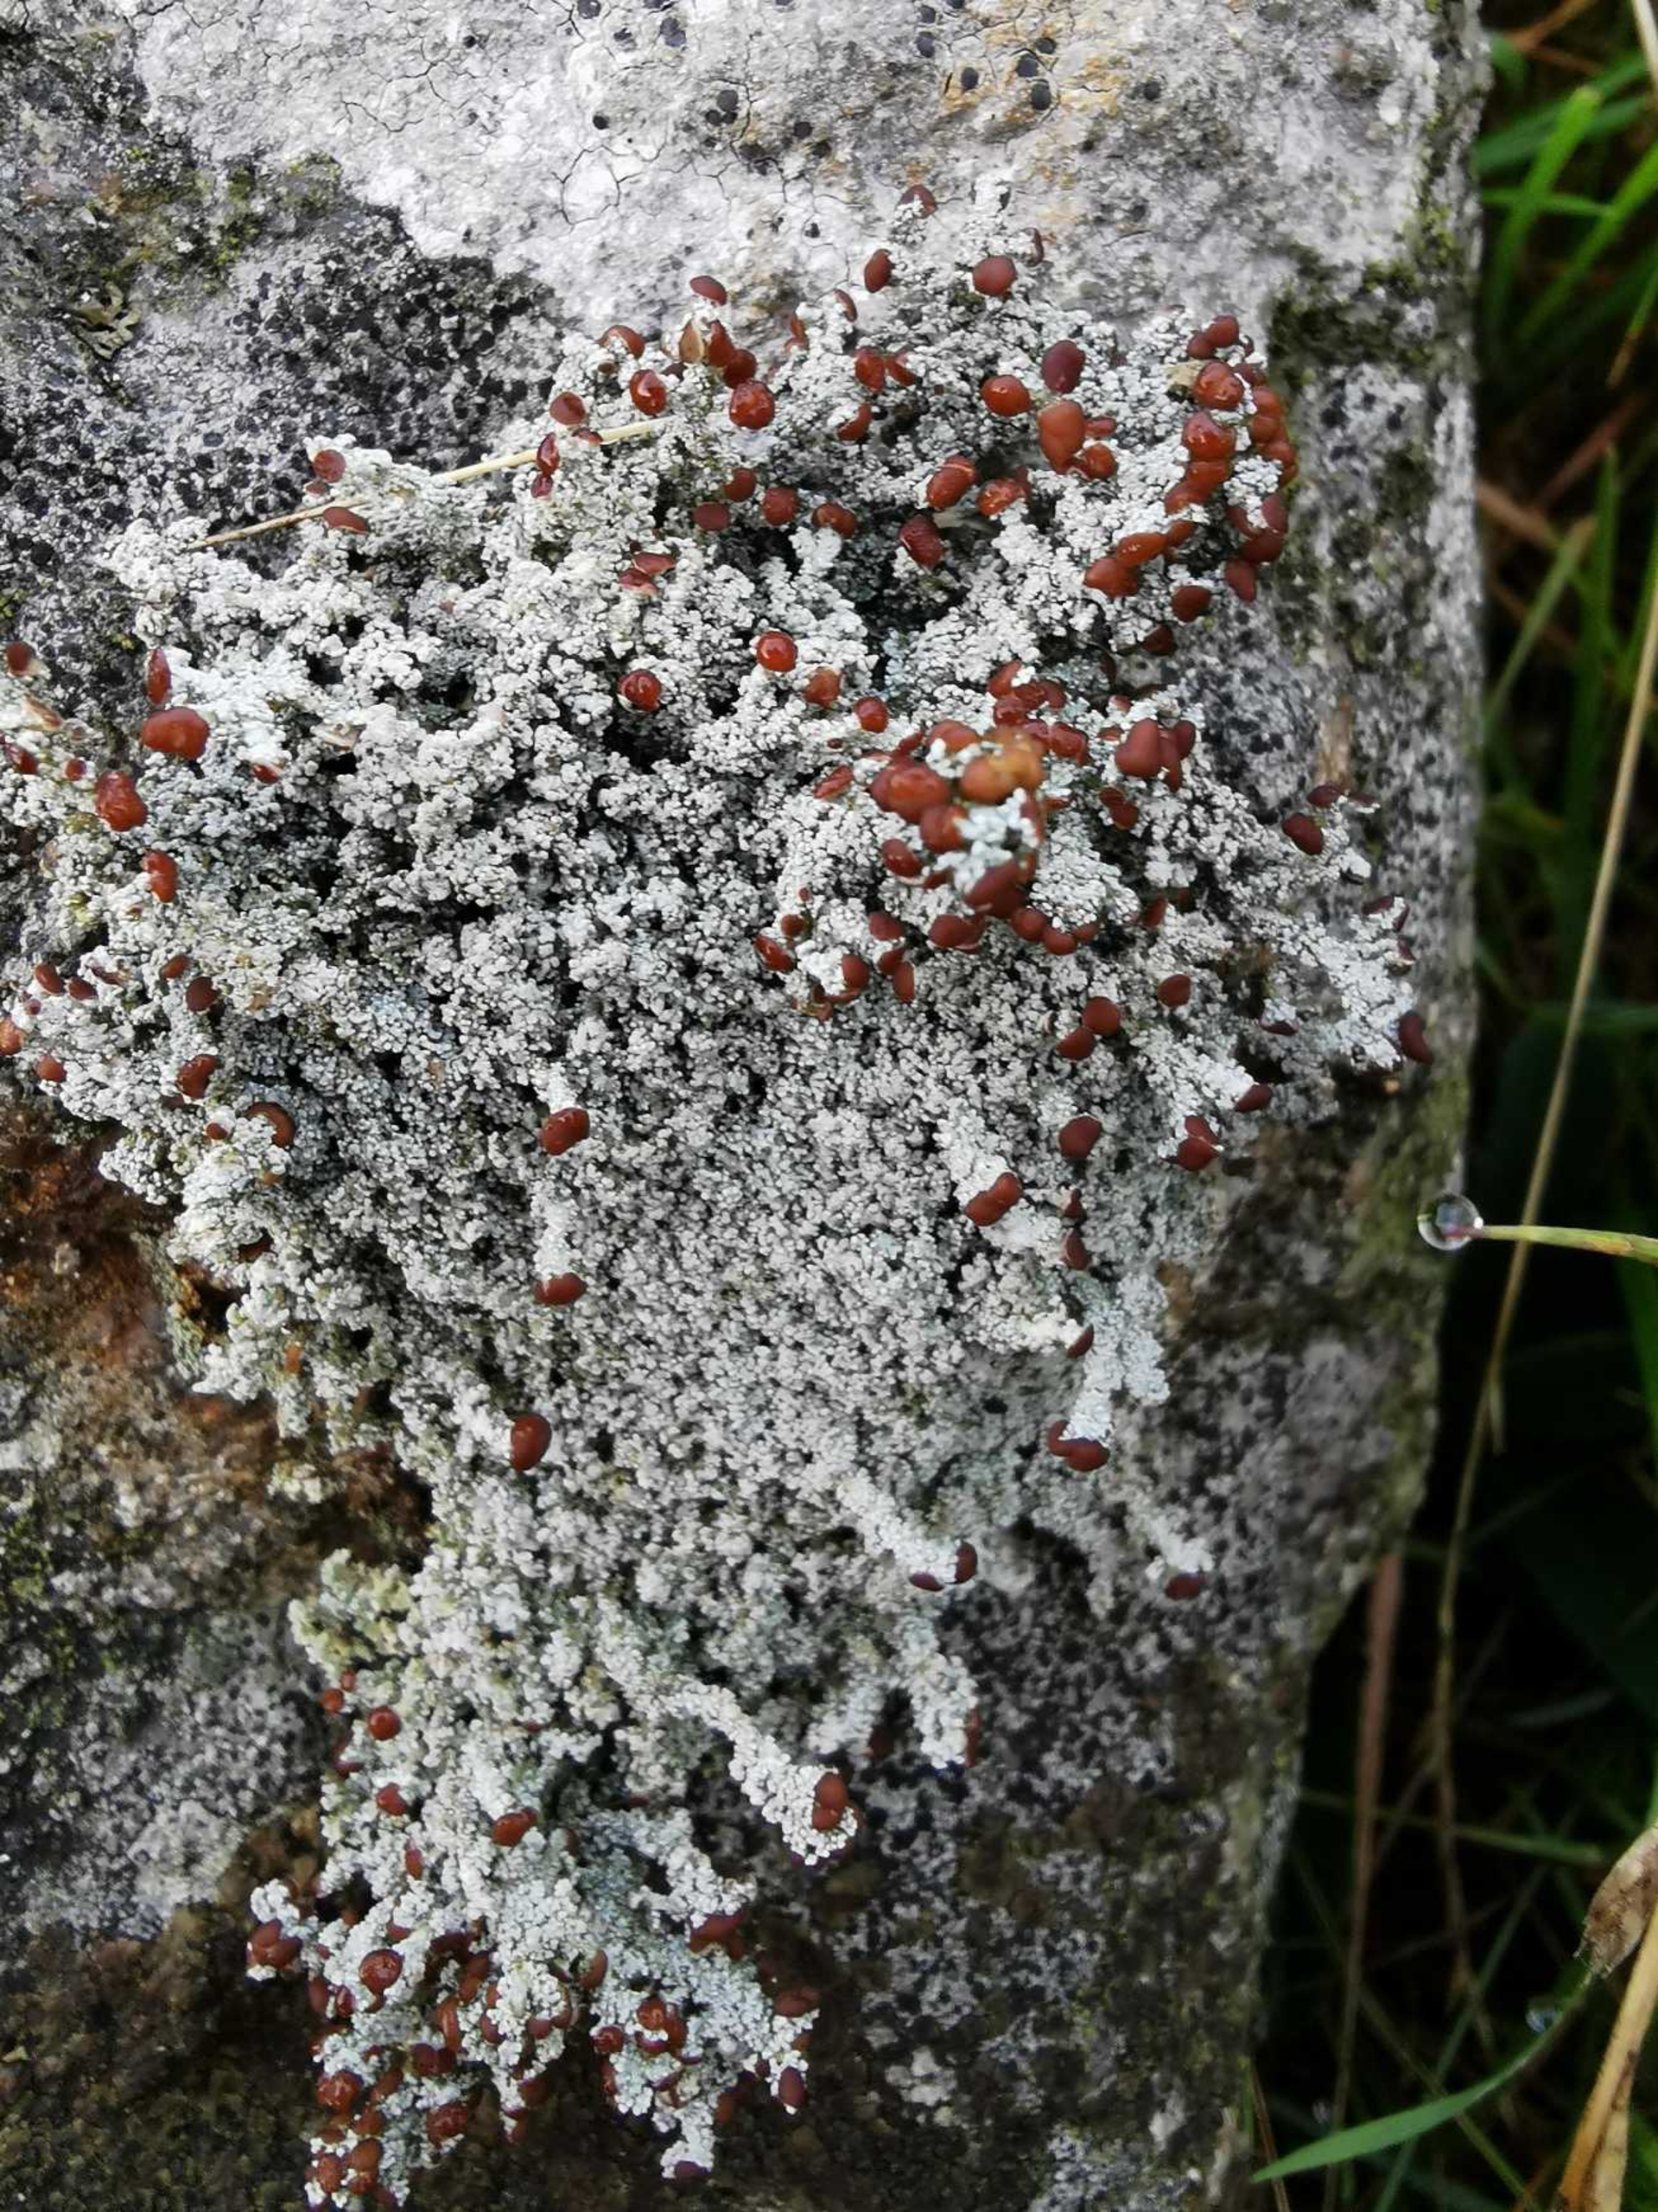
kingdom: Fungi
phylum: Ascomycota
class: Lecanoromycetes
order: Lecanorales
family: Stereocaulaceae
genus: Stereocaulon
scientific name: Stereocaulon dactylophyllum
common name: Finger-korallav
